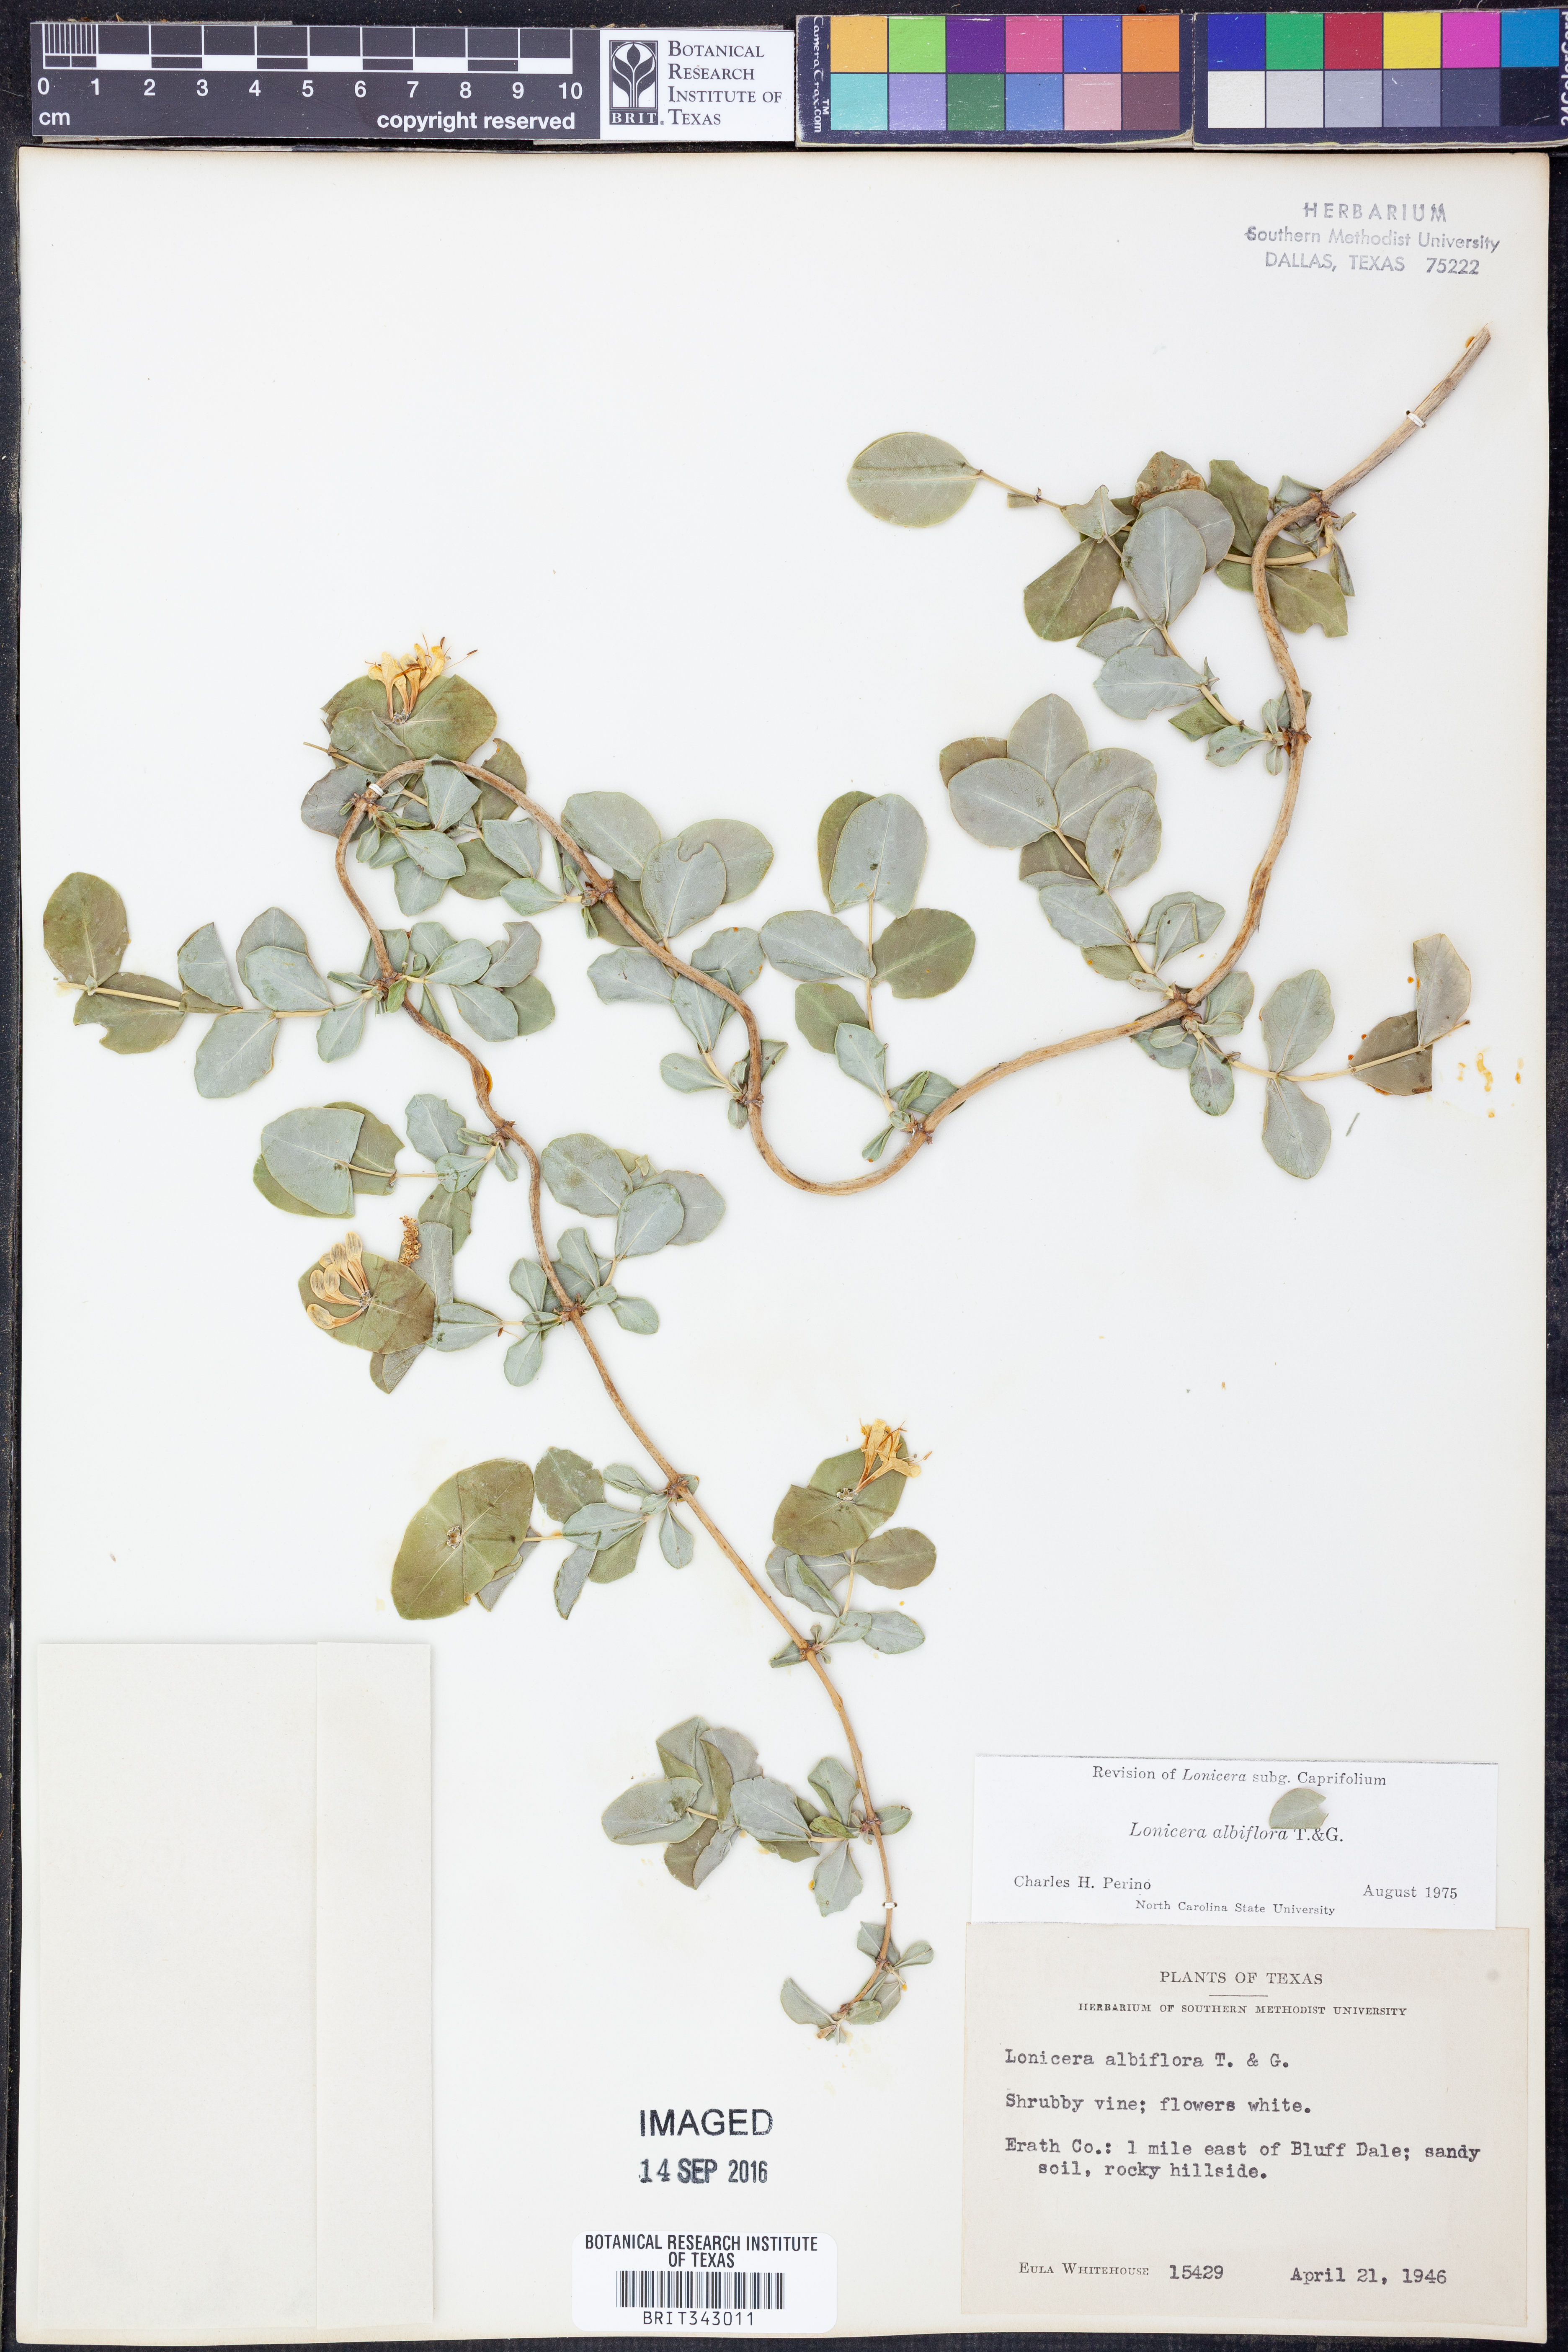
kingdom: Plantae
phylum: Tracheophyta
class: Magnoliopsida
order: Dipsacales
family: Caprifoliaceae
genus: Lonicera
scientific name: Lonicera albiflora
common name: White honeysuckle
